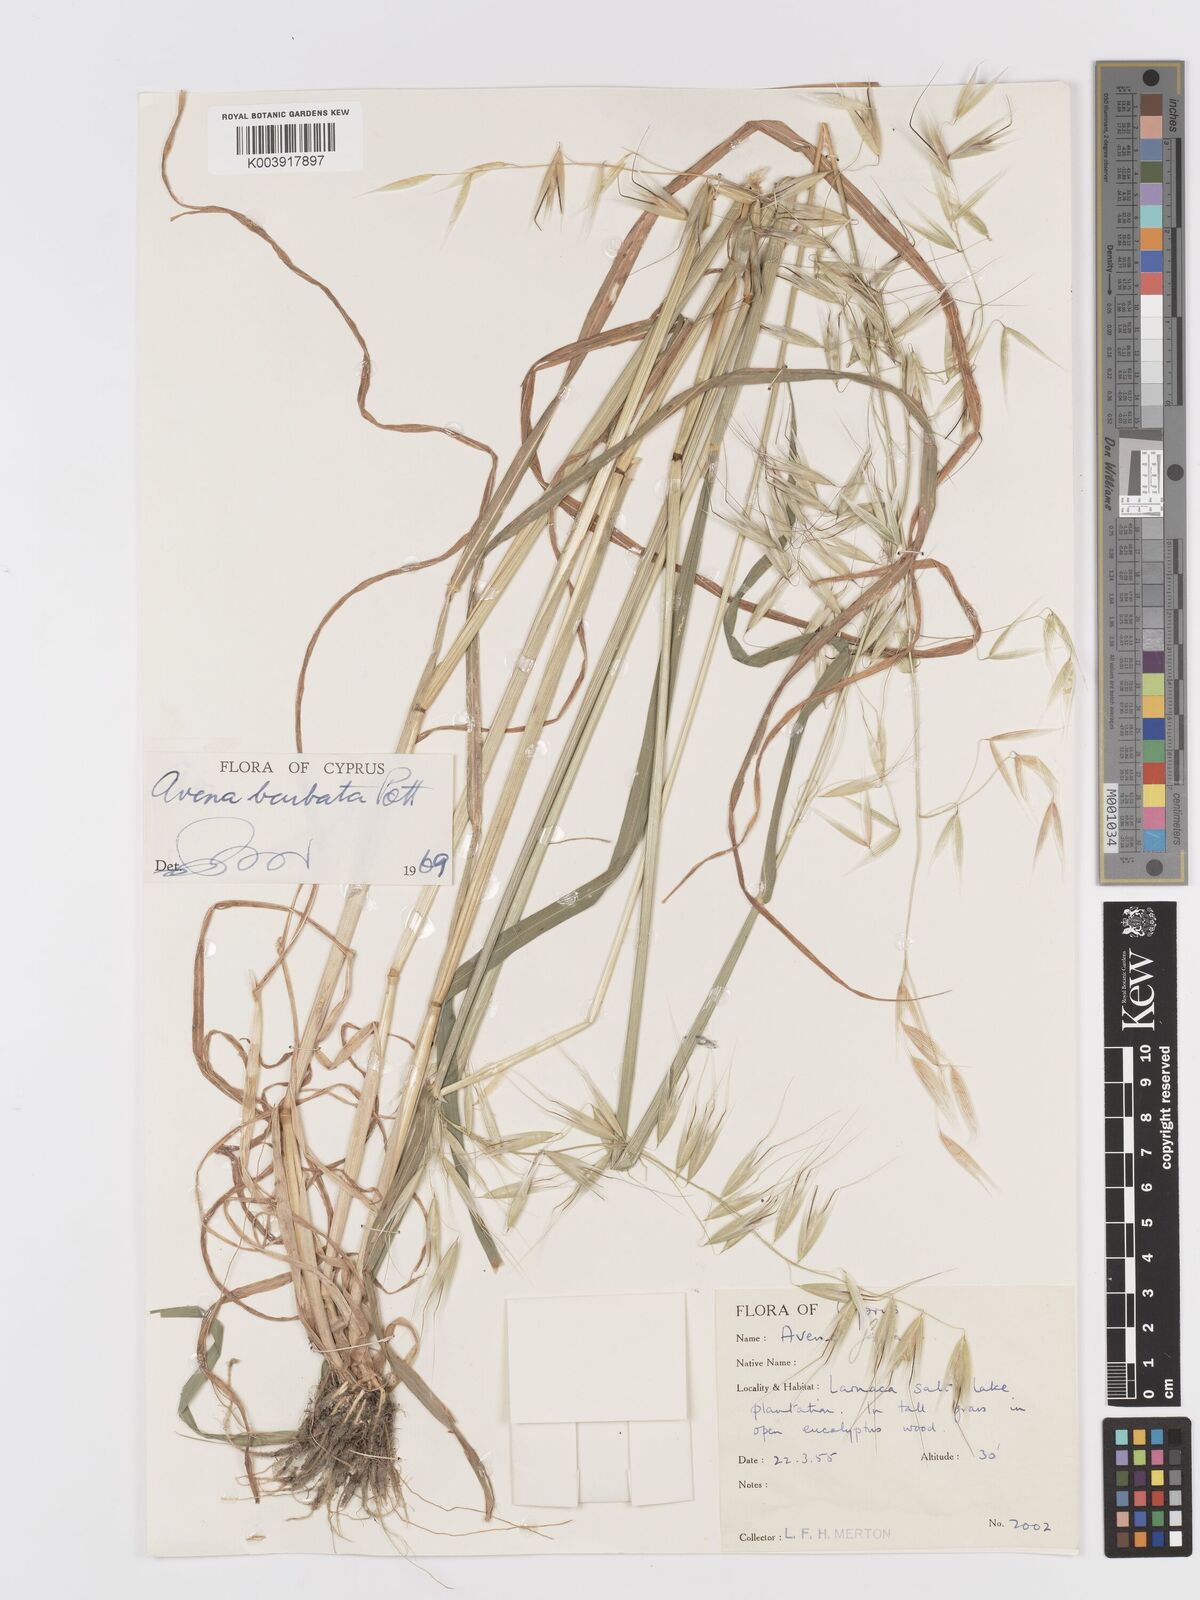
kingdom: Plantae
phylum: Tracheophyta
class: Liliopsida
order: Poales
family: Poaceae
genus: Avena
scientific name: Avena
